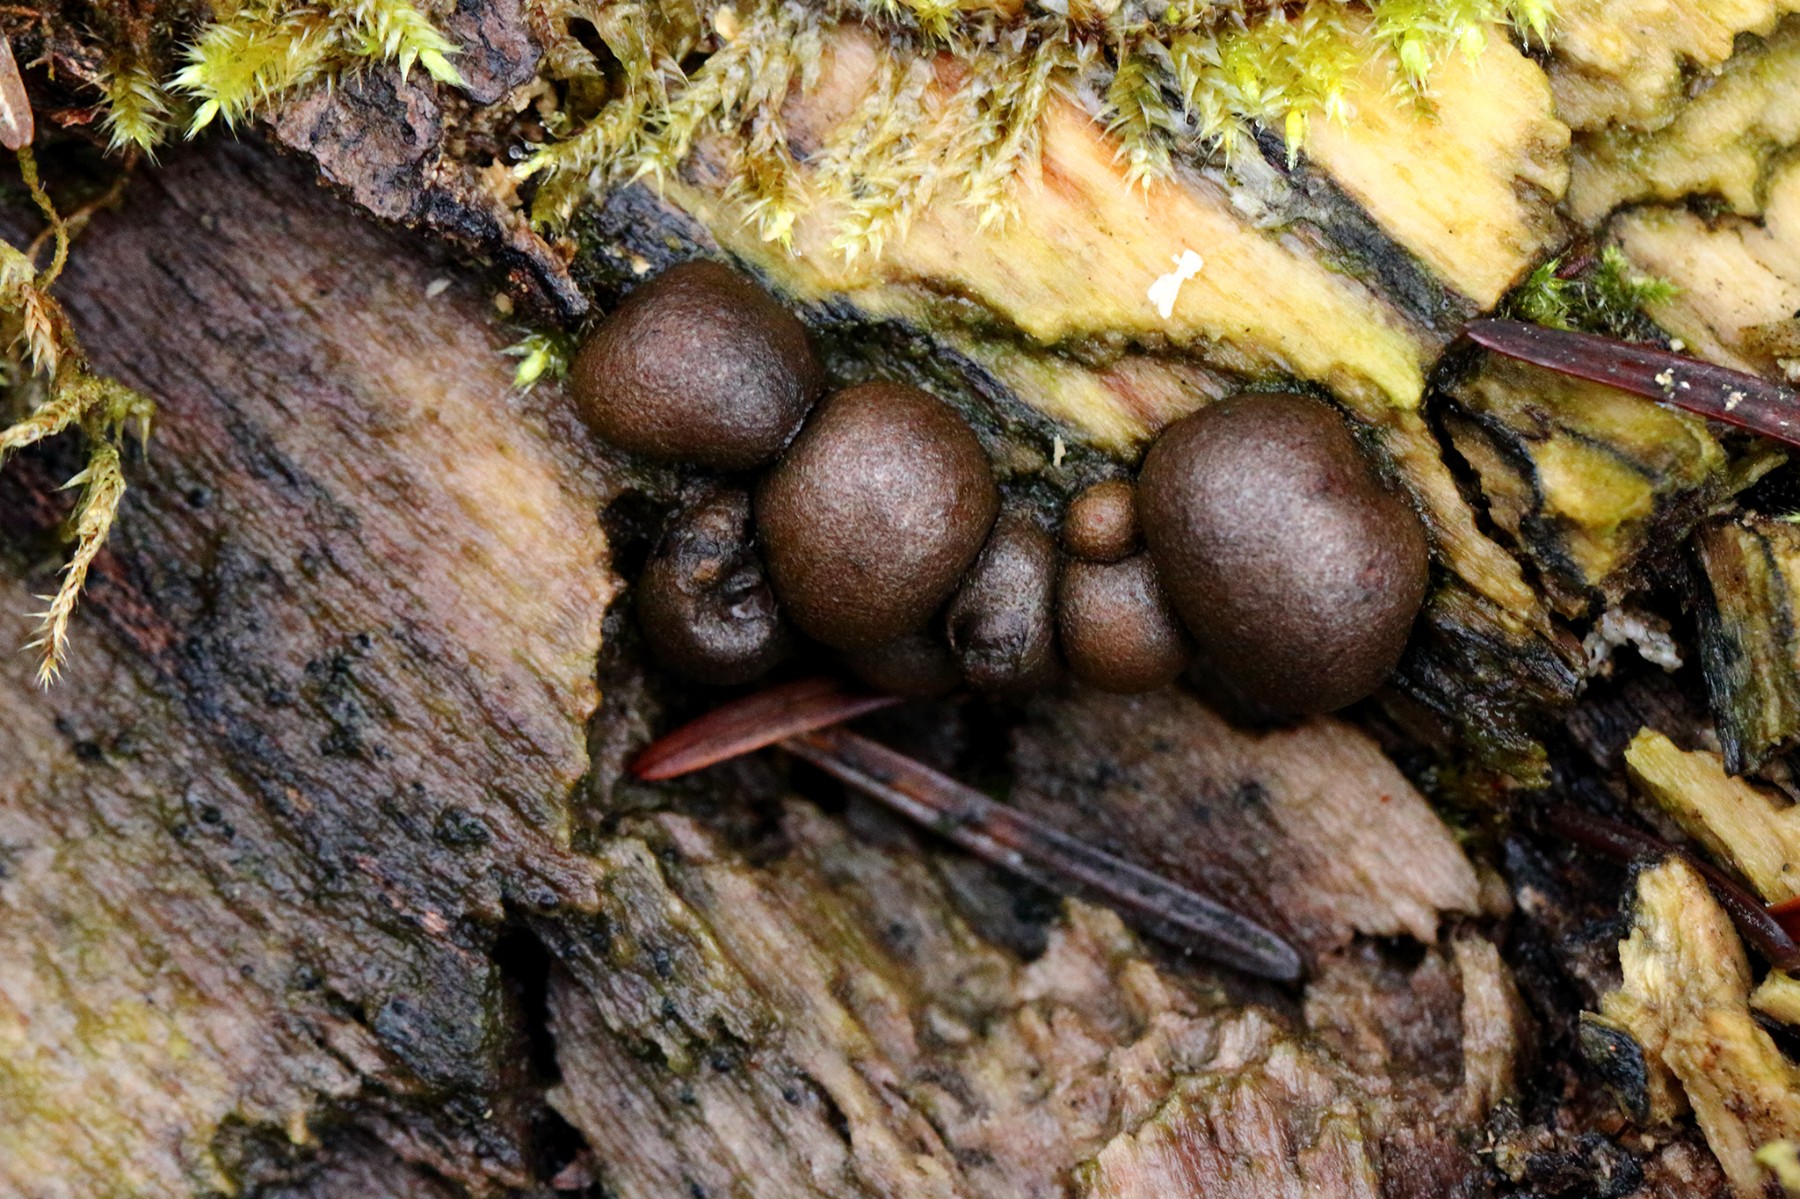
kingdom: Protozoa
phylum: Mycetozoa
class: Myxomycetes
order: Cribrariales
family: Tubiferaceae
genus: Lycogala
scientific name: Lycogala epidendrum
